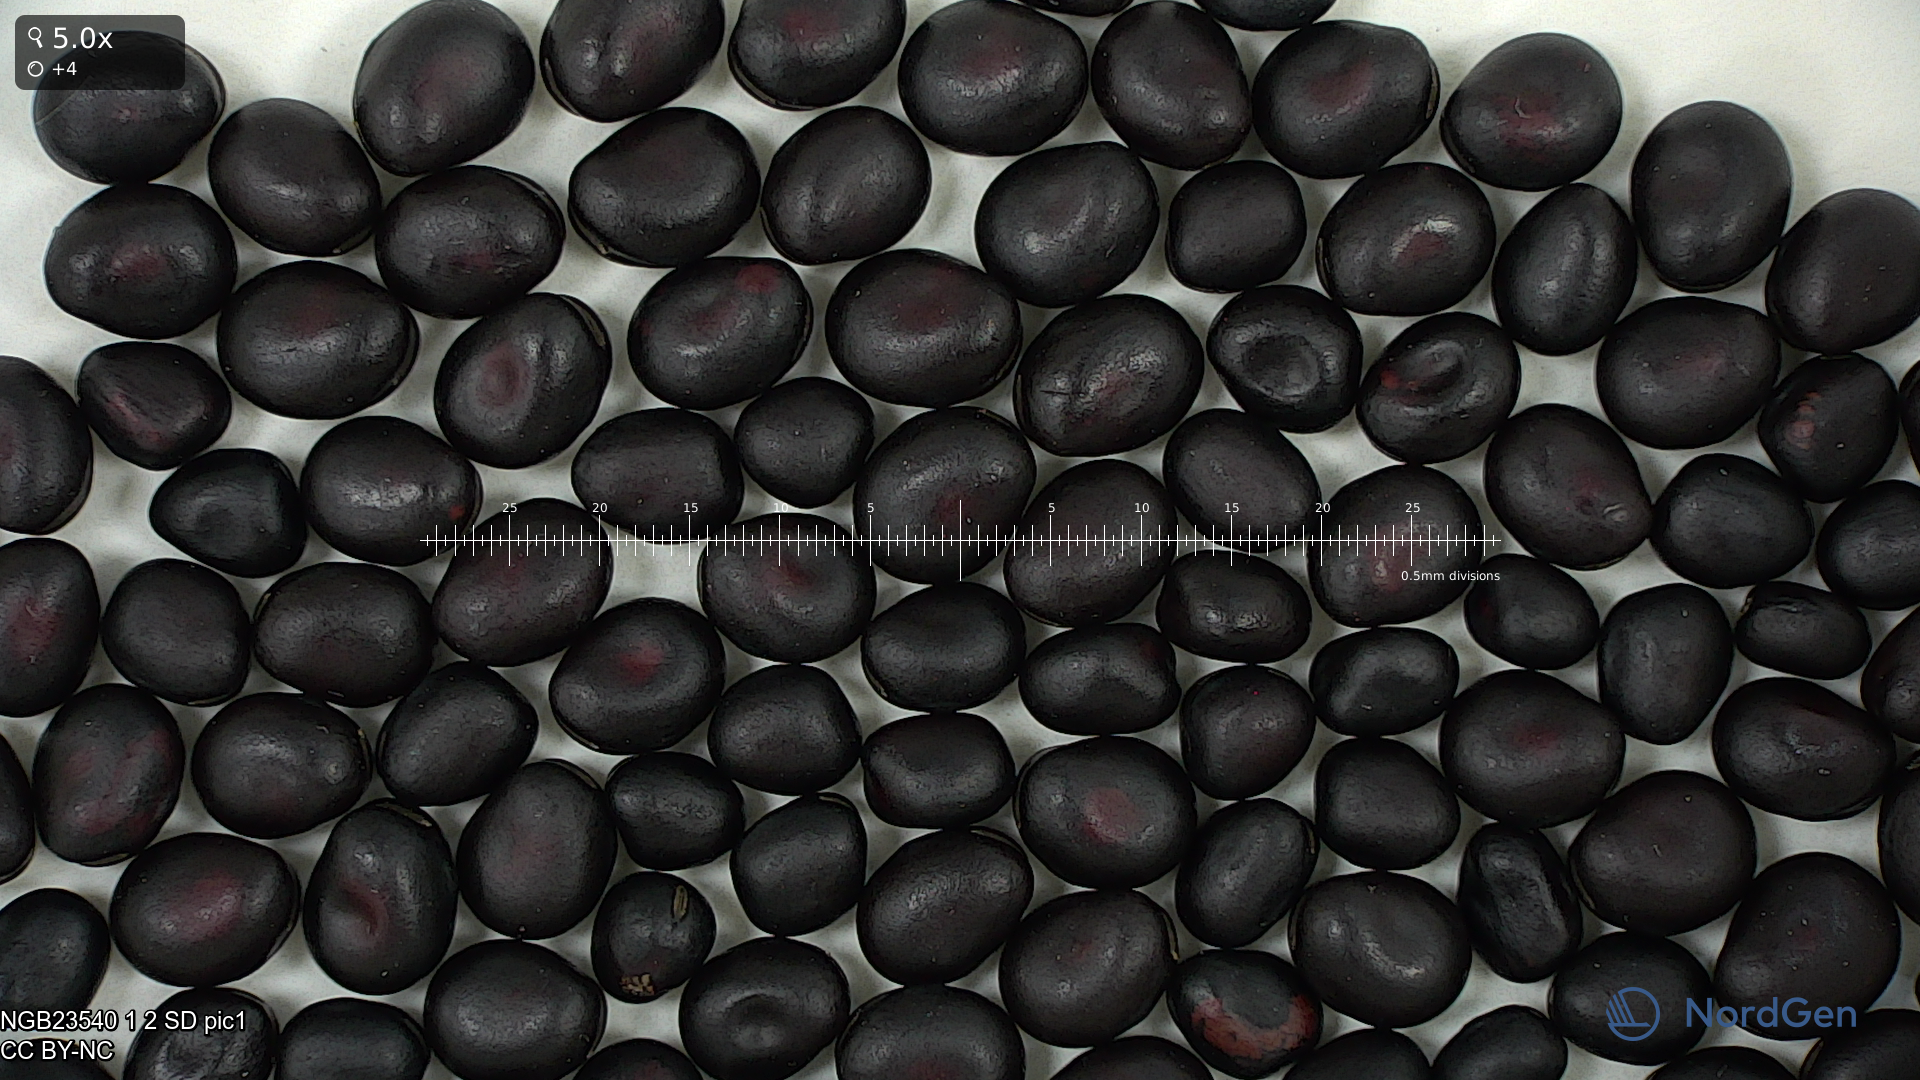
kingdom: Plantae
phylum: Tracheophyta
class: Magnoliopsida
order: Fabales
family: Fabaceae
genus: Vicia
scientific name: Vicia faba
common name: Broad bean
